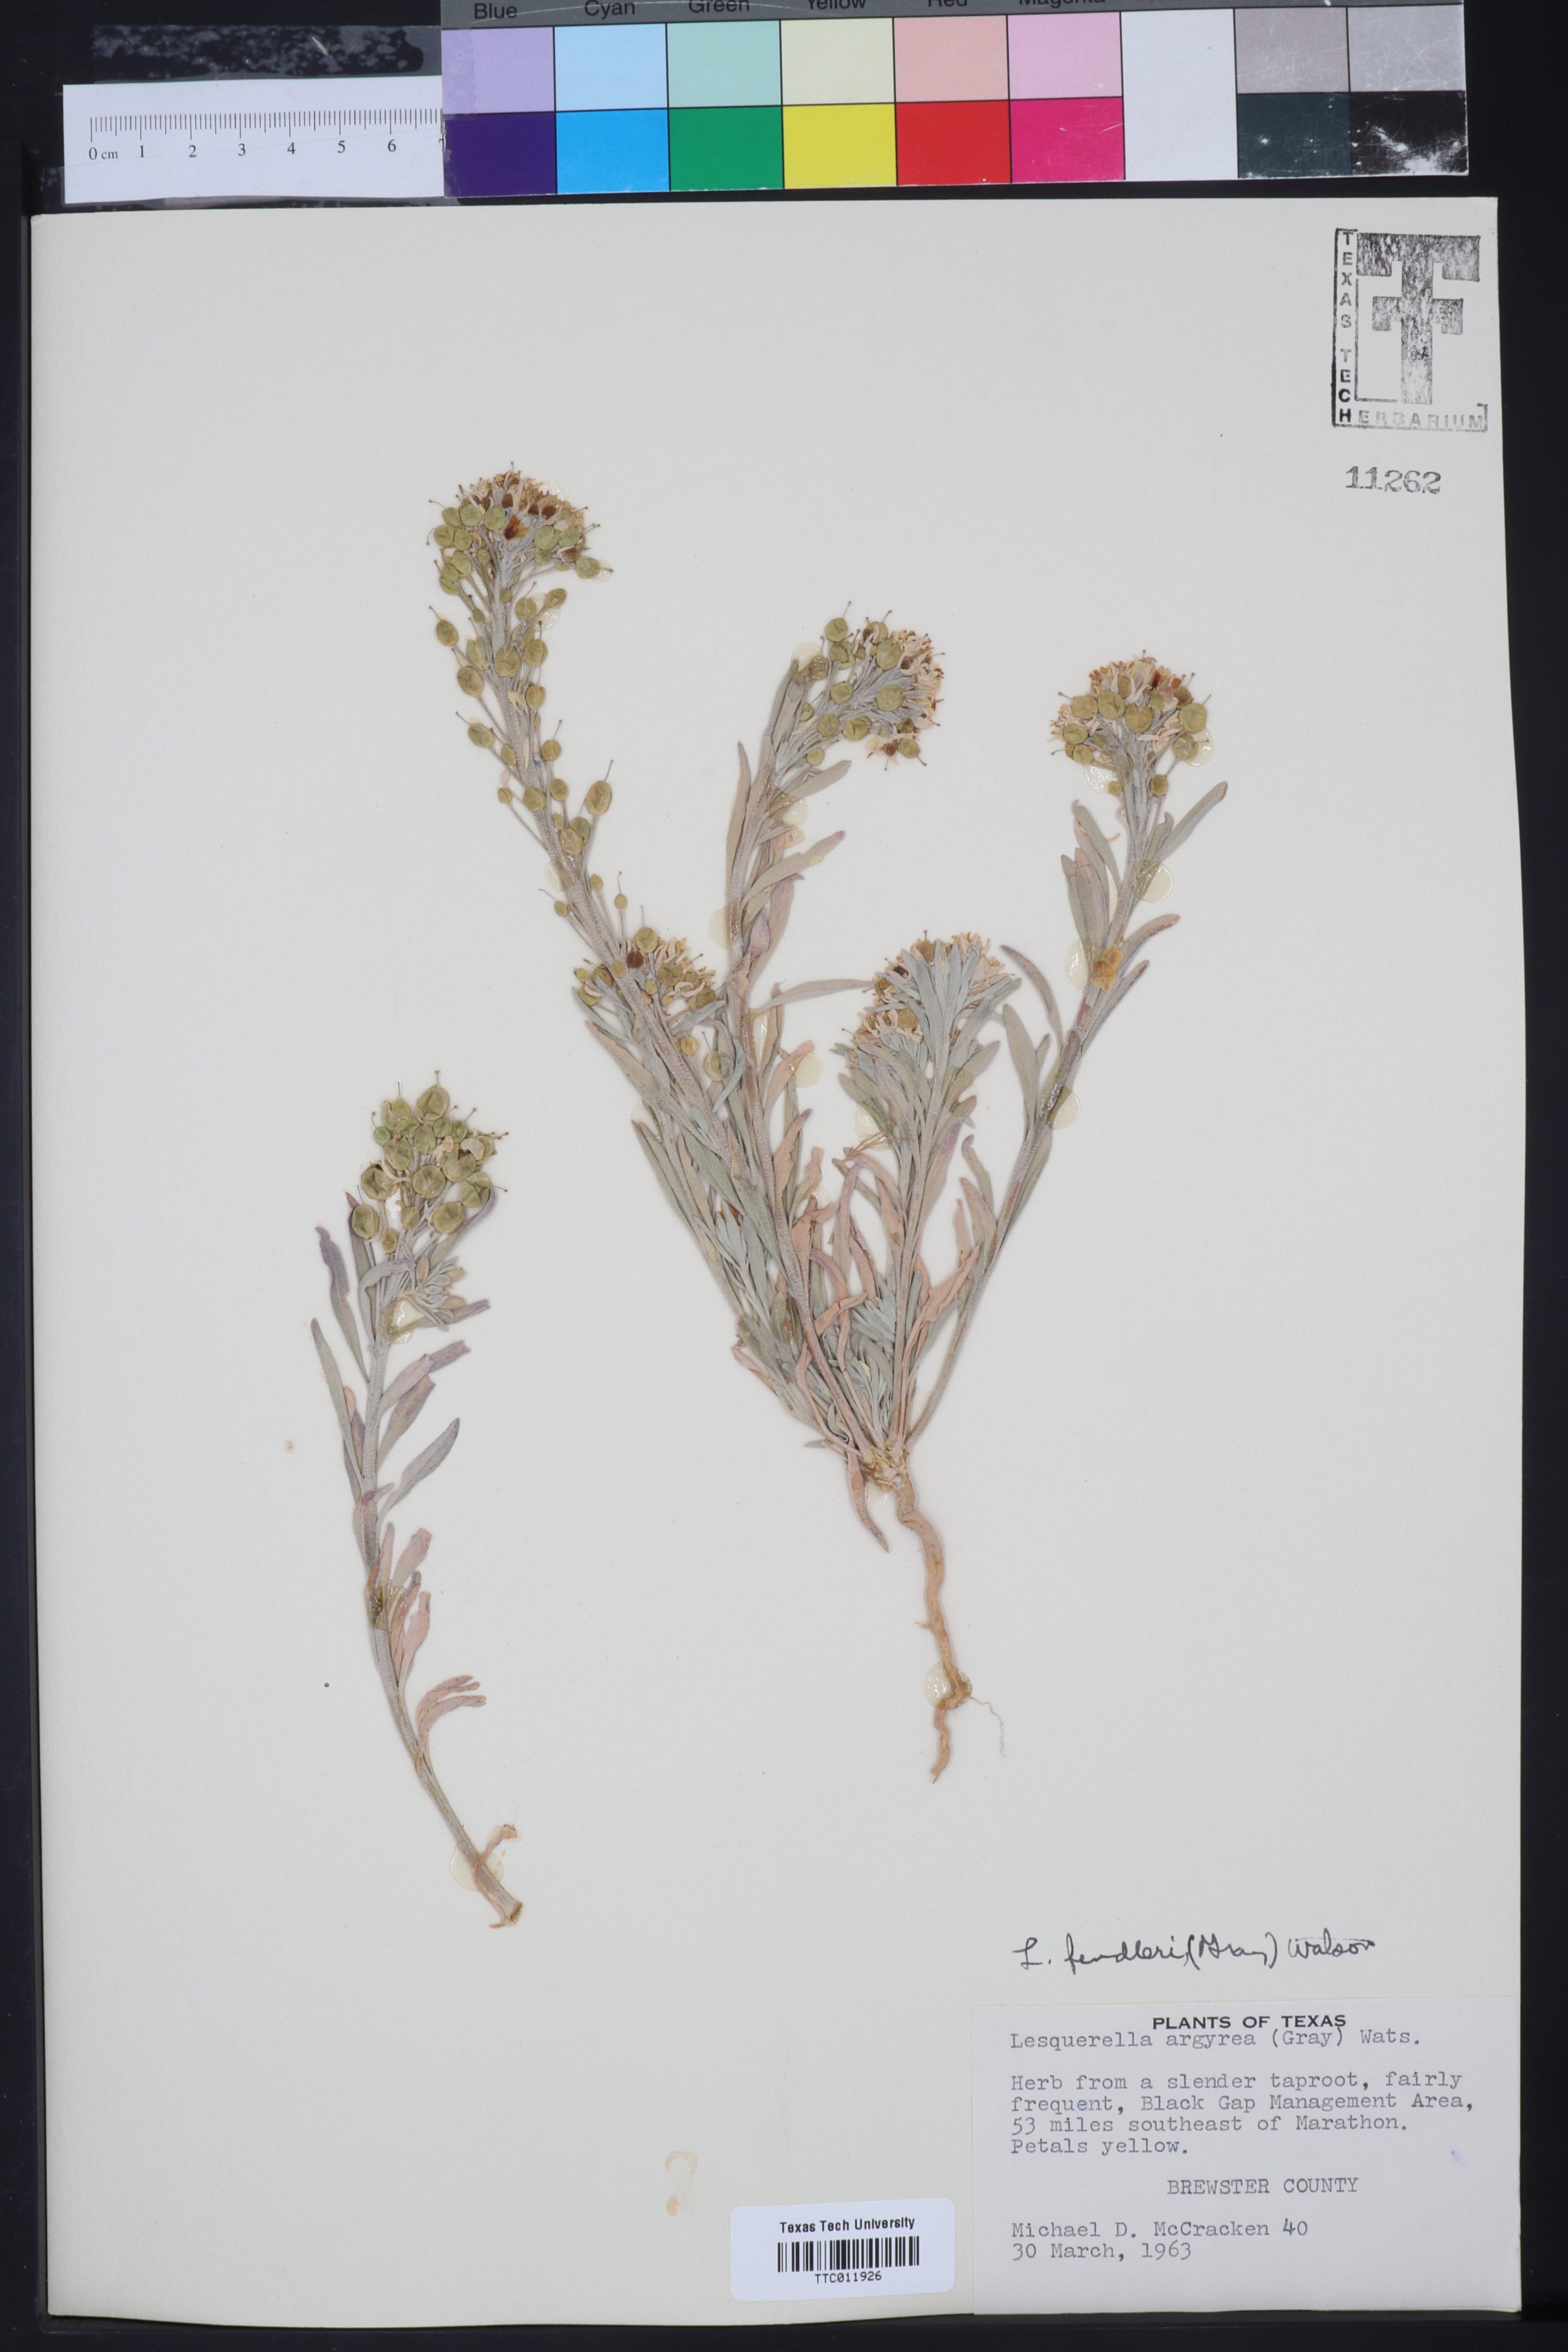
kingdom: Plantae
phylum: Tracheophyta
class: Magnoliopsida
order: Brassicales
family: Brassicaceae
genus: Physaria
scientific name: Physaria fendleri
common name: Fendler's bladderpod
